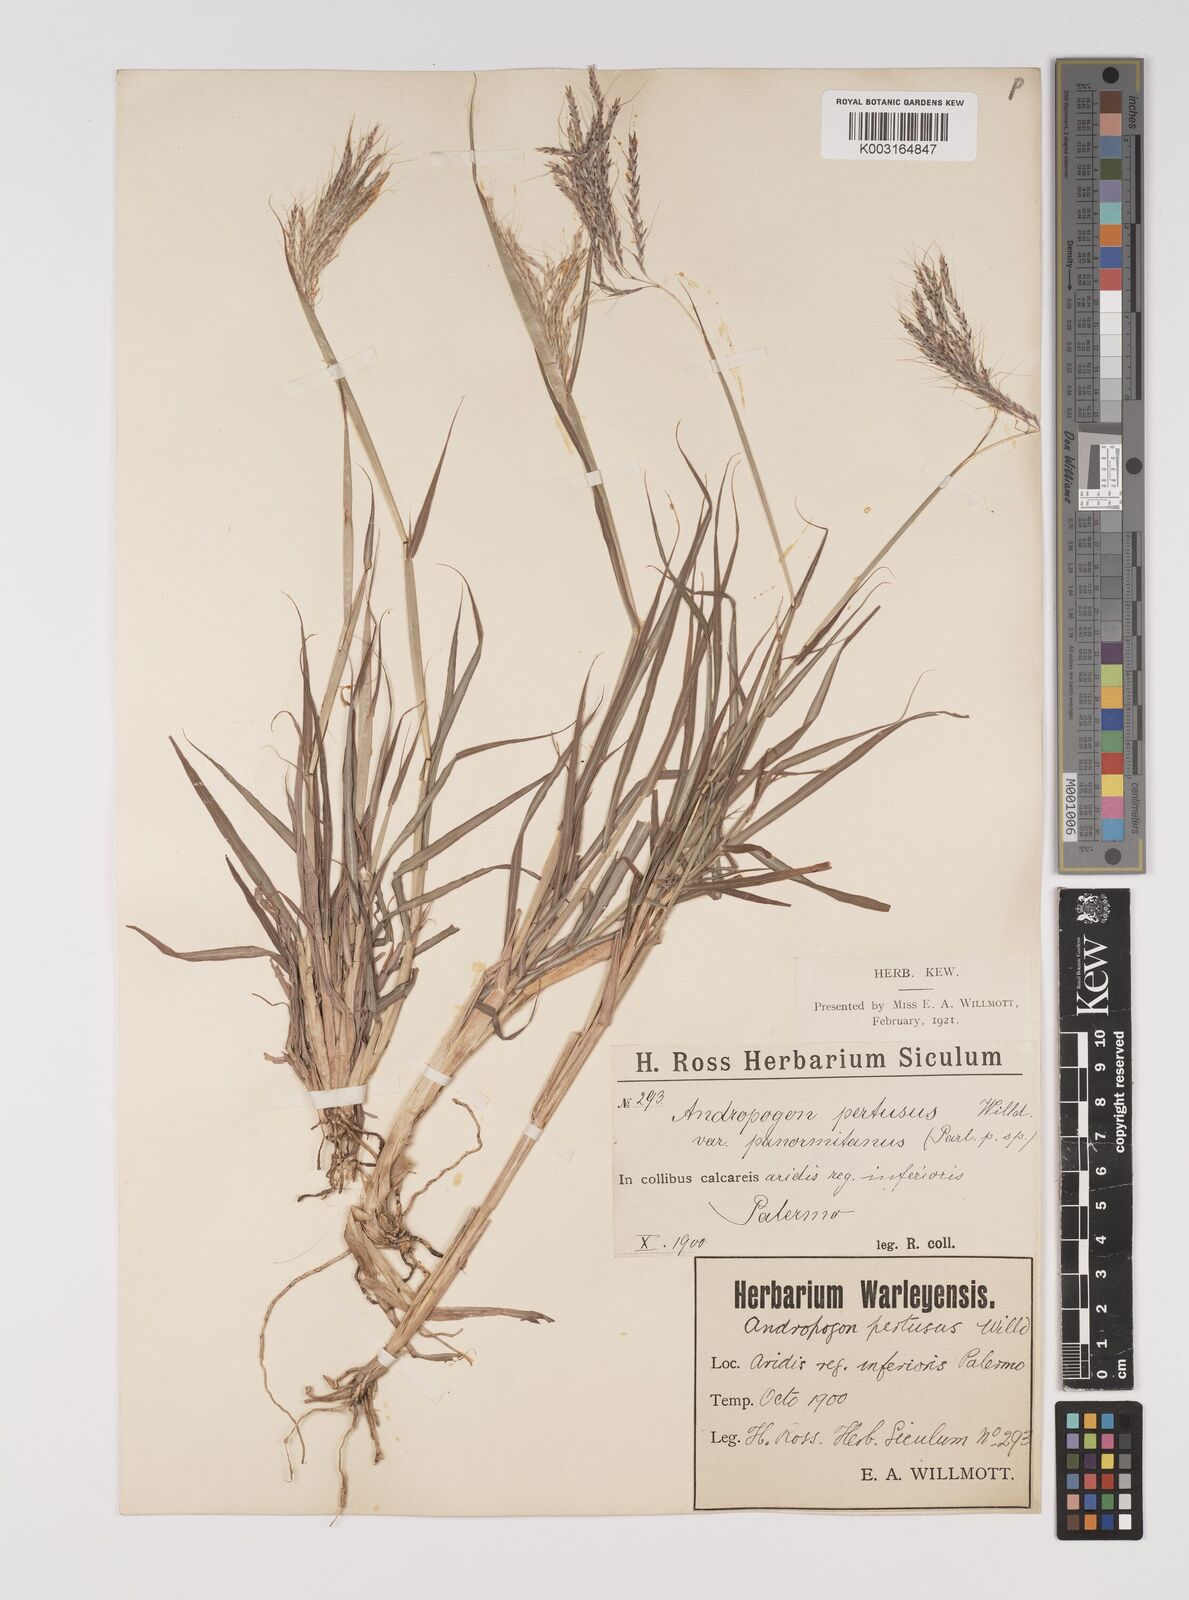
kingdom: Plantae
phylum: Tracheophyta
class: Liliopsida
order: Poales
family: Poaceae
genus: Bothriochloa
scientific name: Bothriochloa insculpta
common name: Creeping-bluegrass
